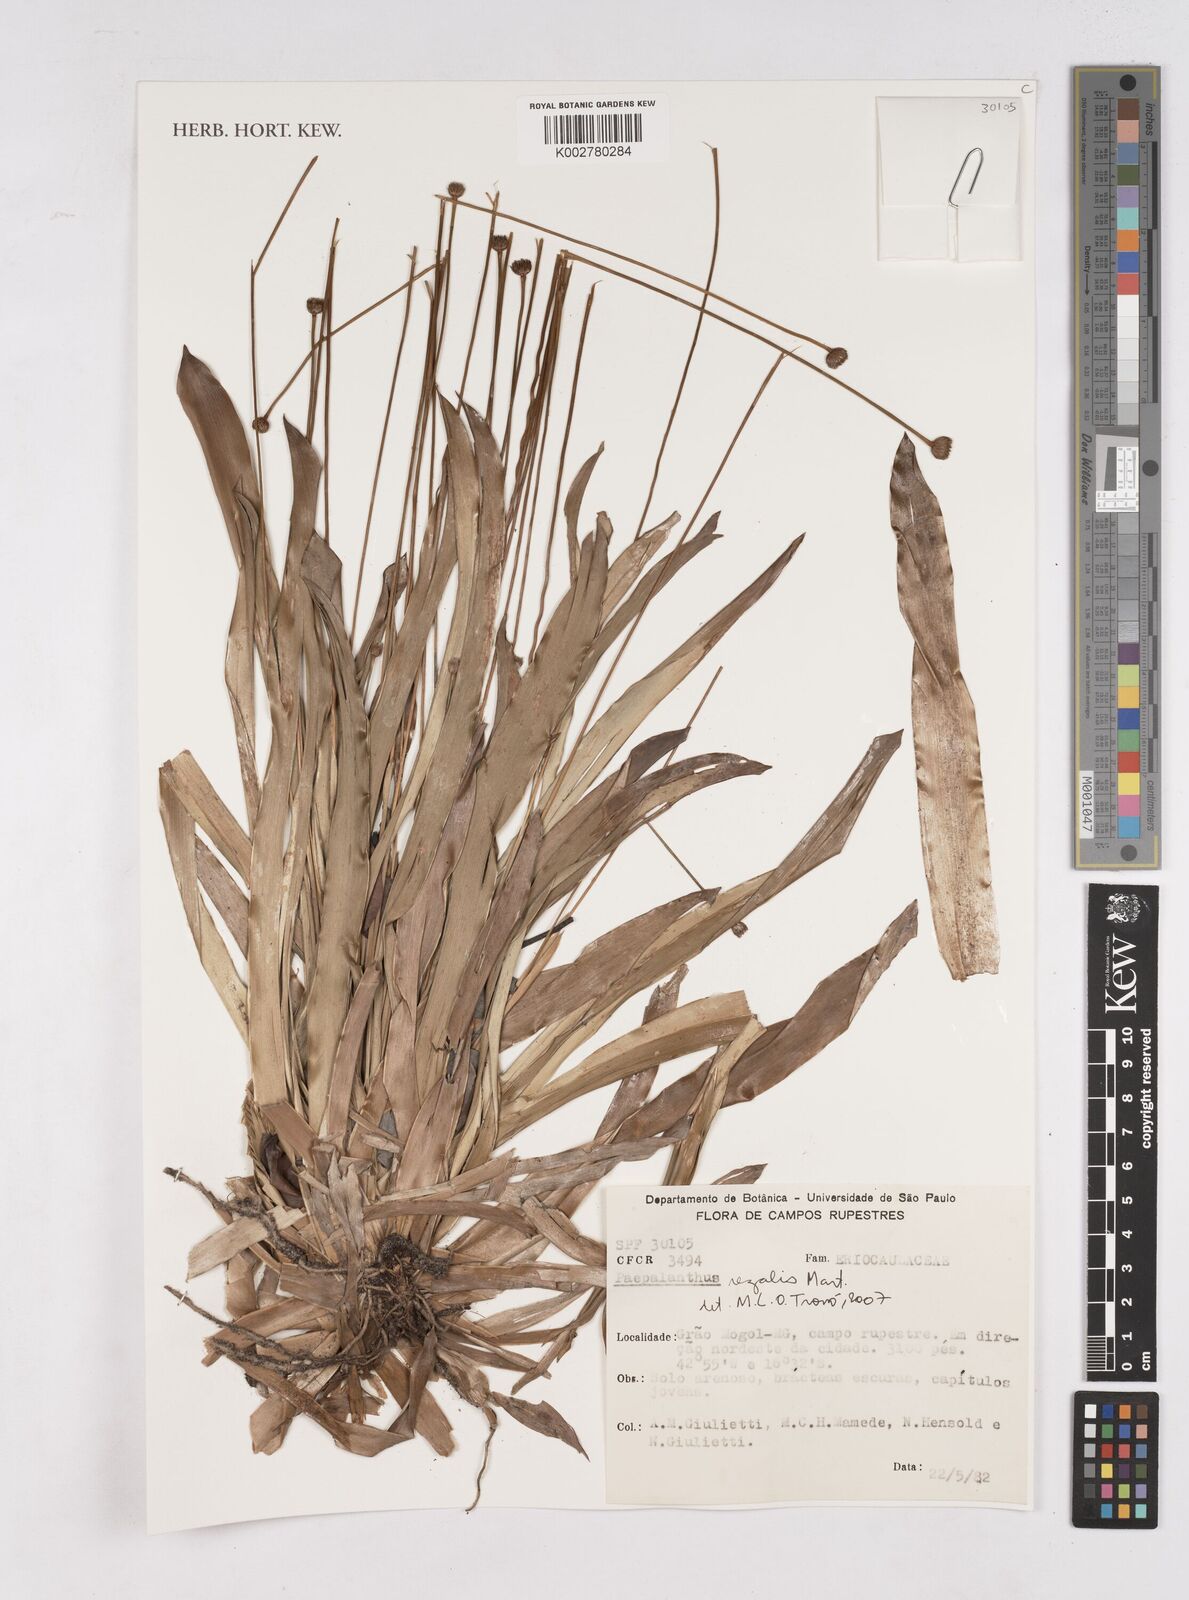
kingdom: Plantae
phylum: Tracheophyta
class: Liliopsida
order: Poales
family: Eriocaulaceae
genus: Paepalanthus
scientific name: Paepalanthus regalis
